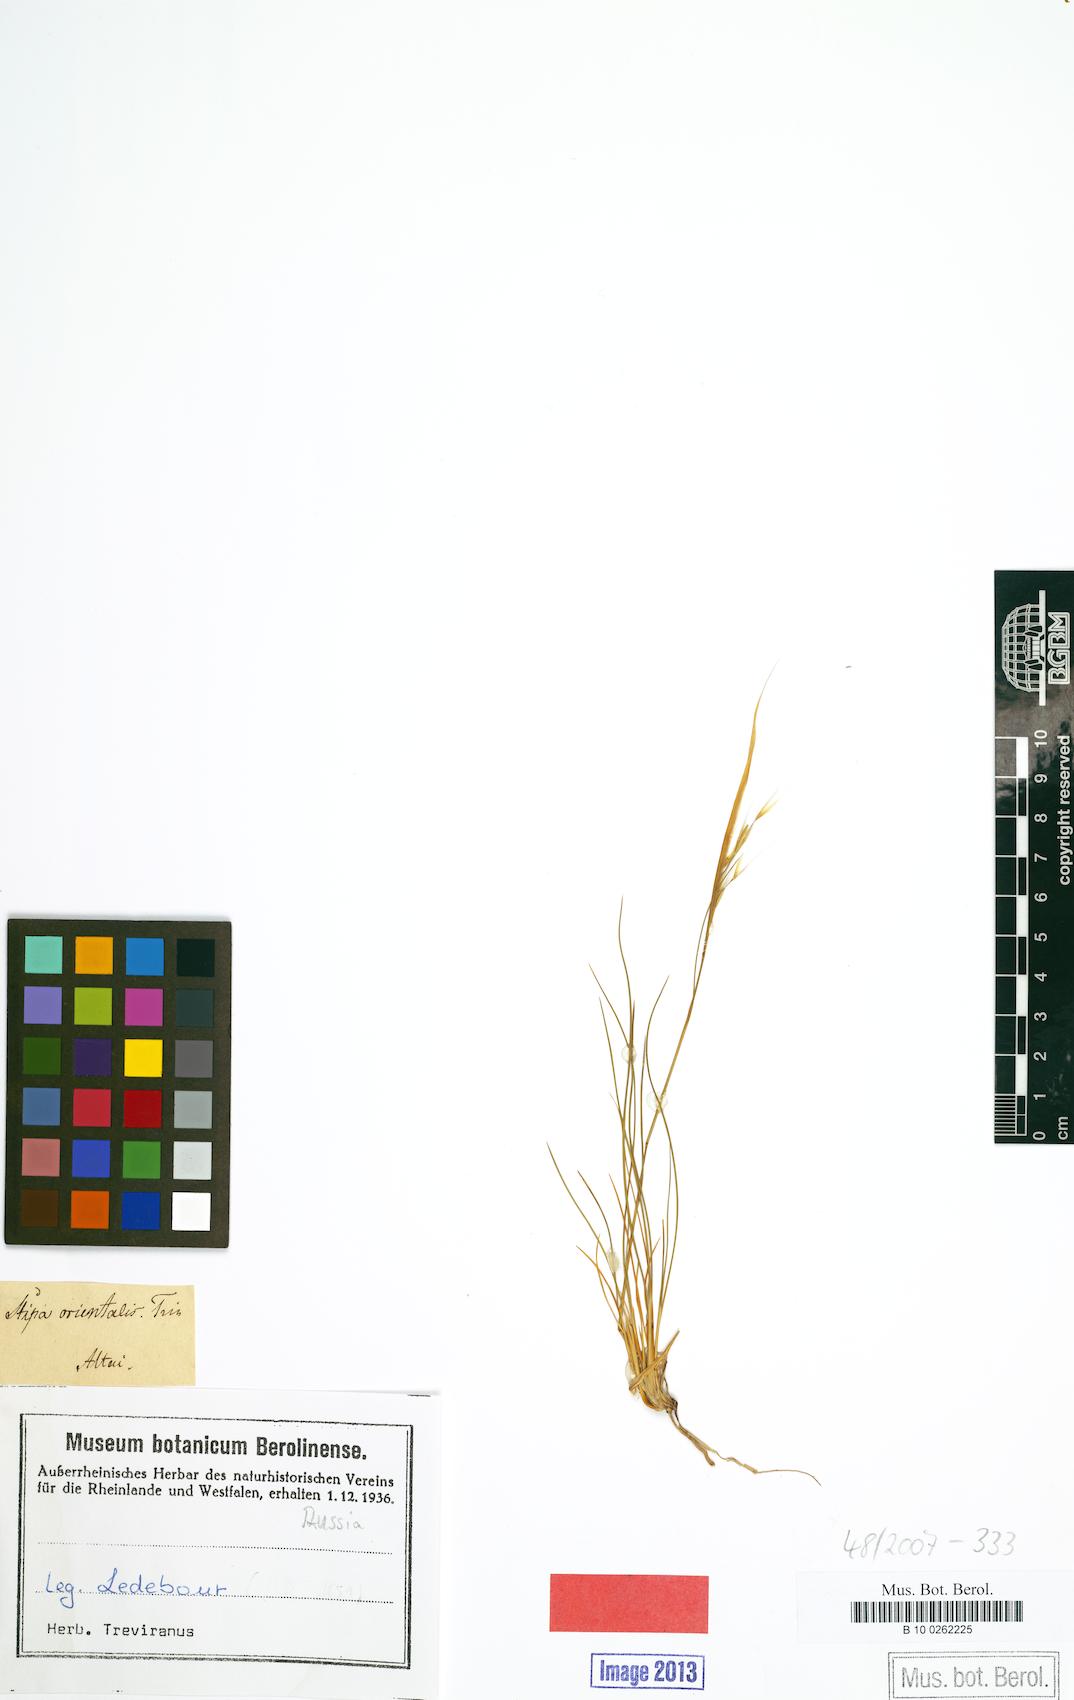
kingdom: Plantae
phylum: Tracheophyta
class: Liliopsida
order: Poales
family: Poaceae
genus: Stipa
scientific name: Stipa orientalis
